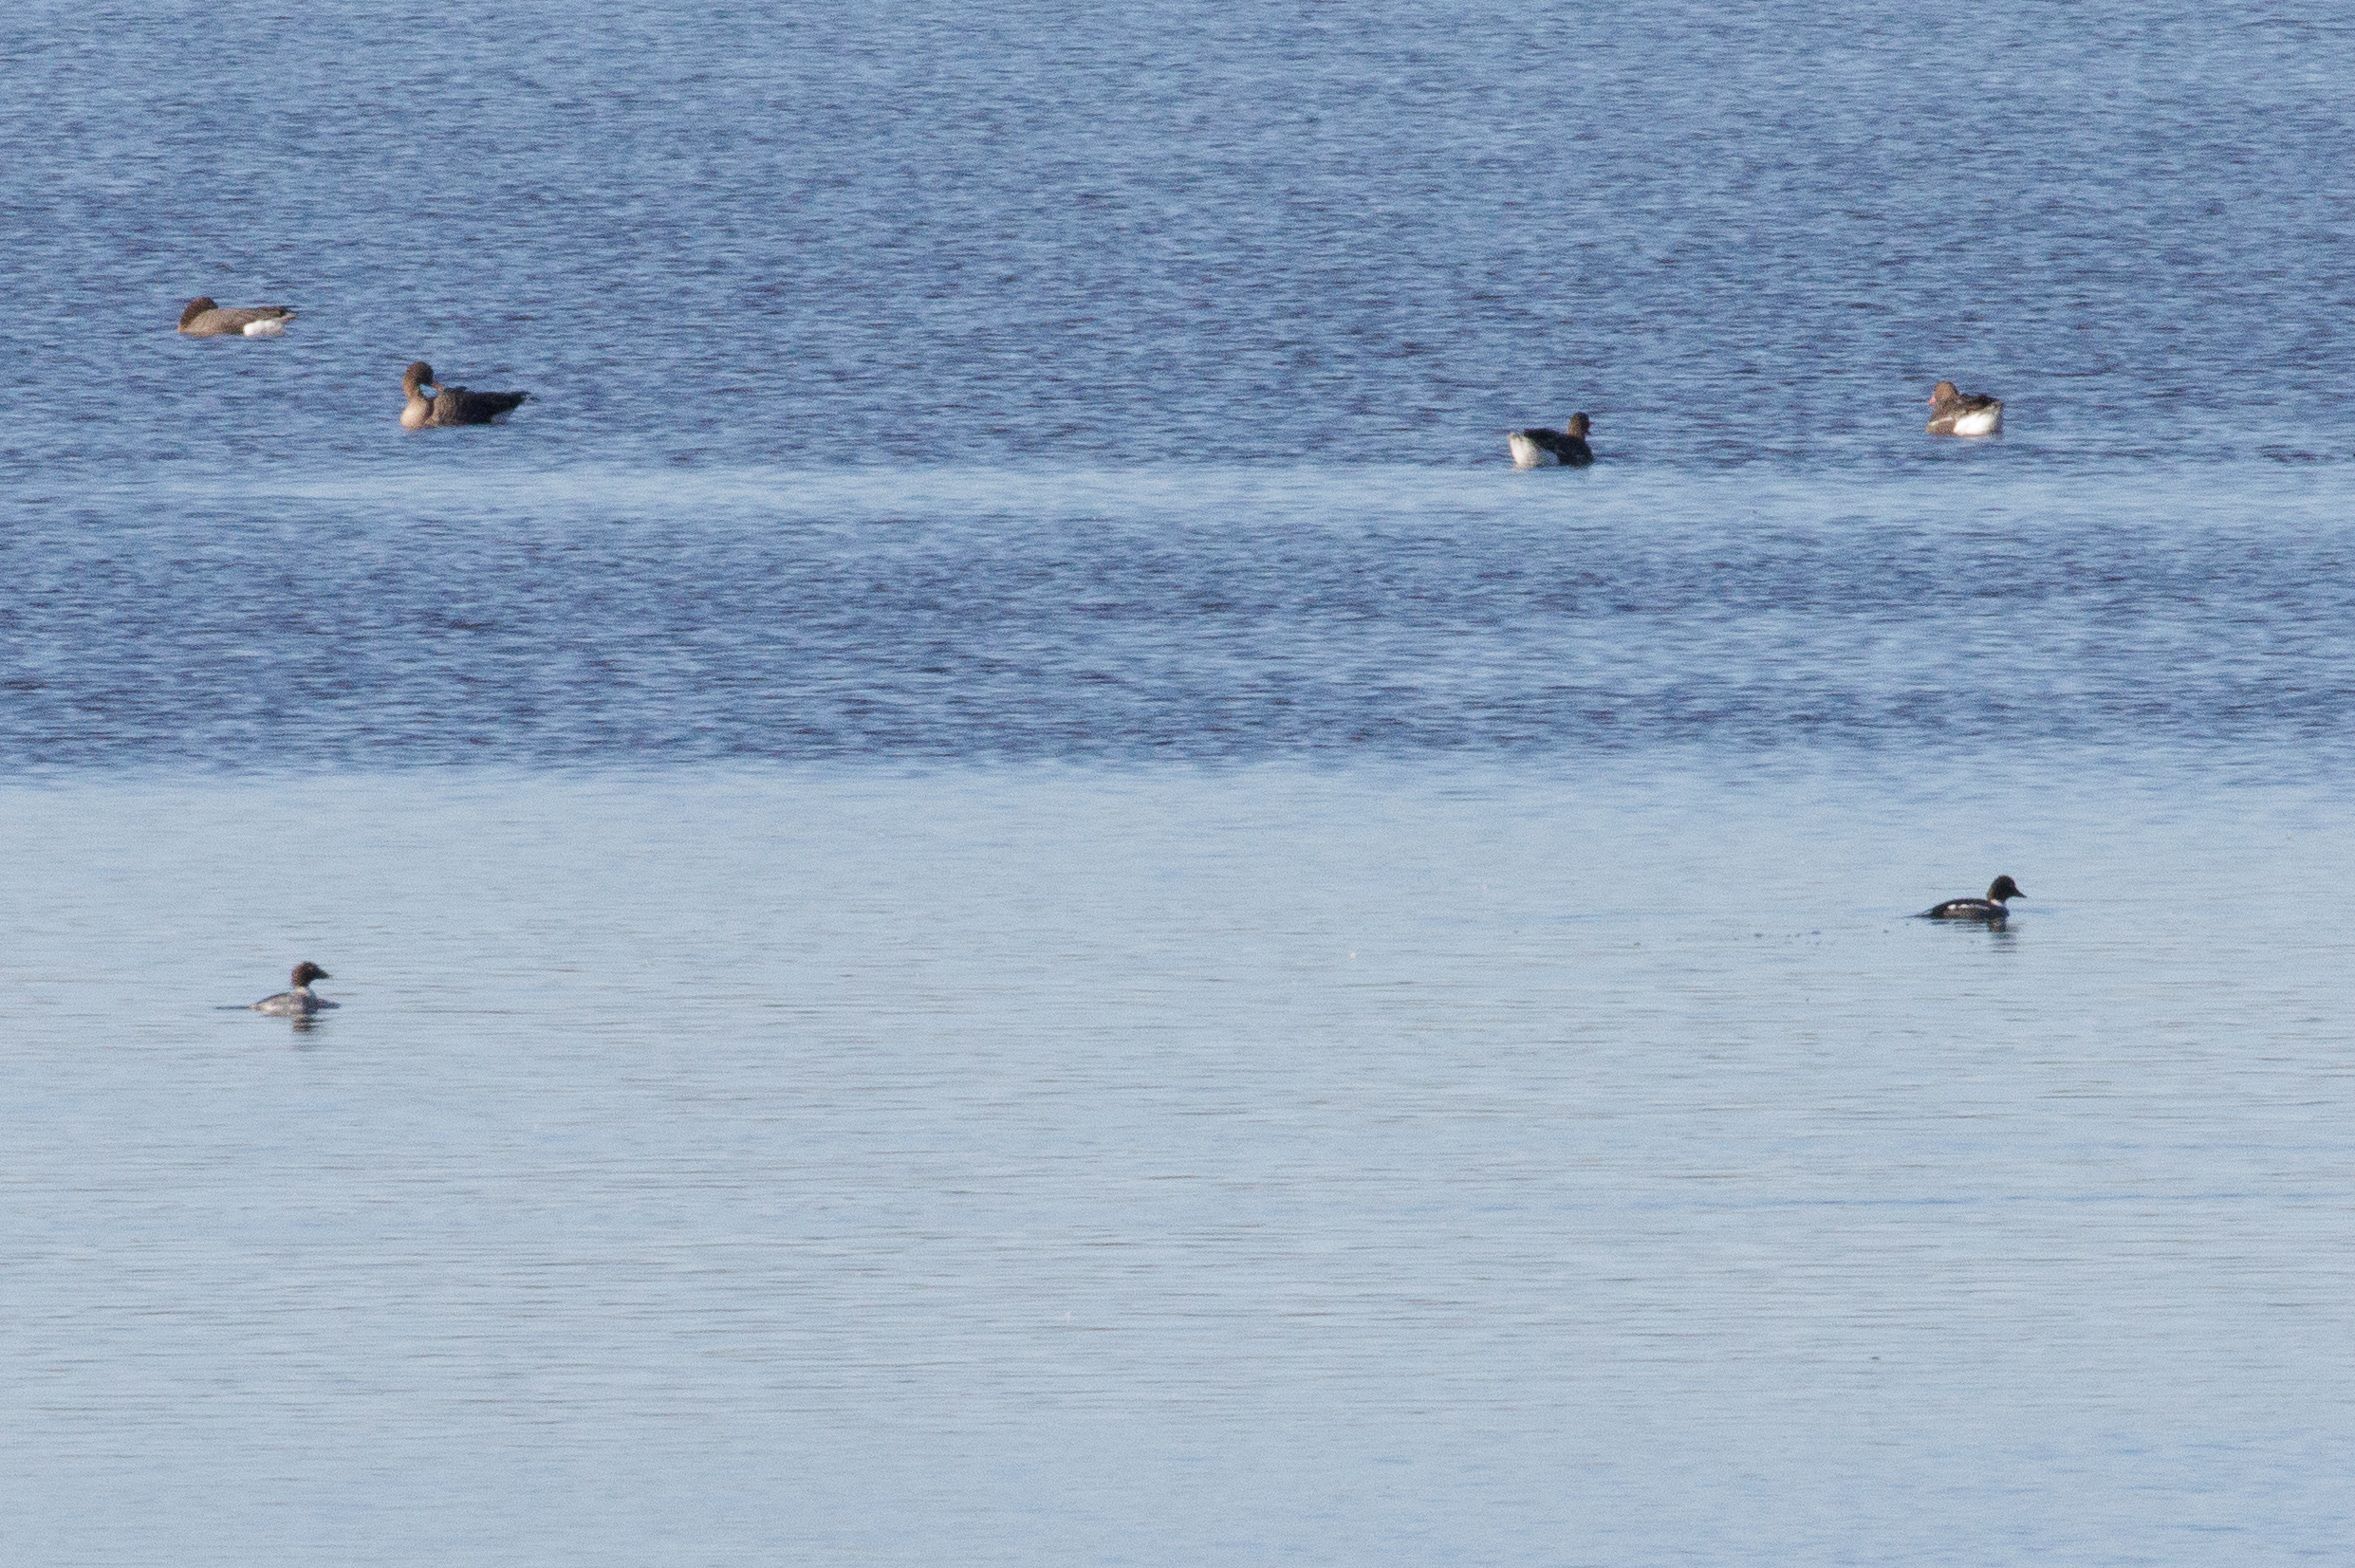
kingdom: Animalia
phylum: Chordata
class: Aves
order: Anseriformes
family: Anatidae
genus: Bucephala
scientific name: Bucephala clangula
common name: Hvinand
